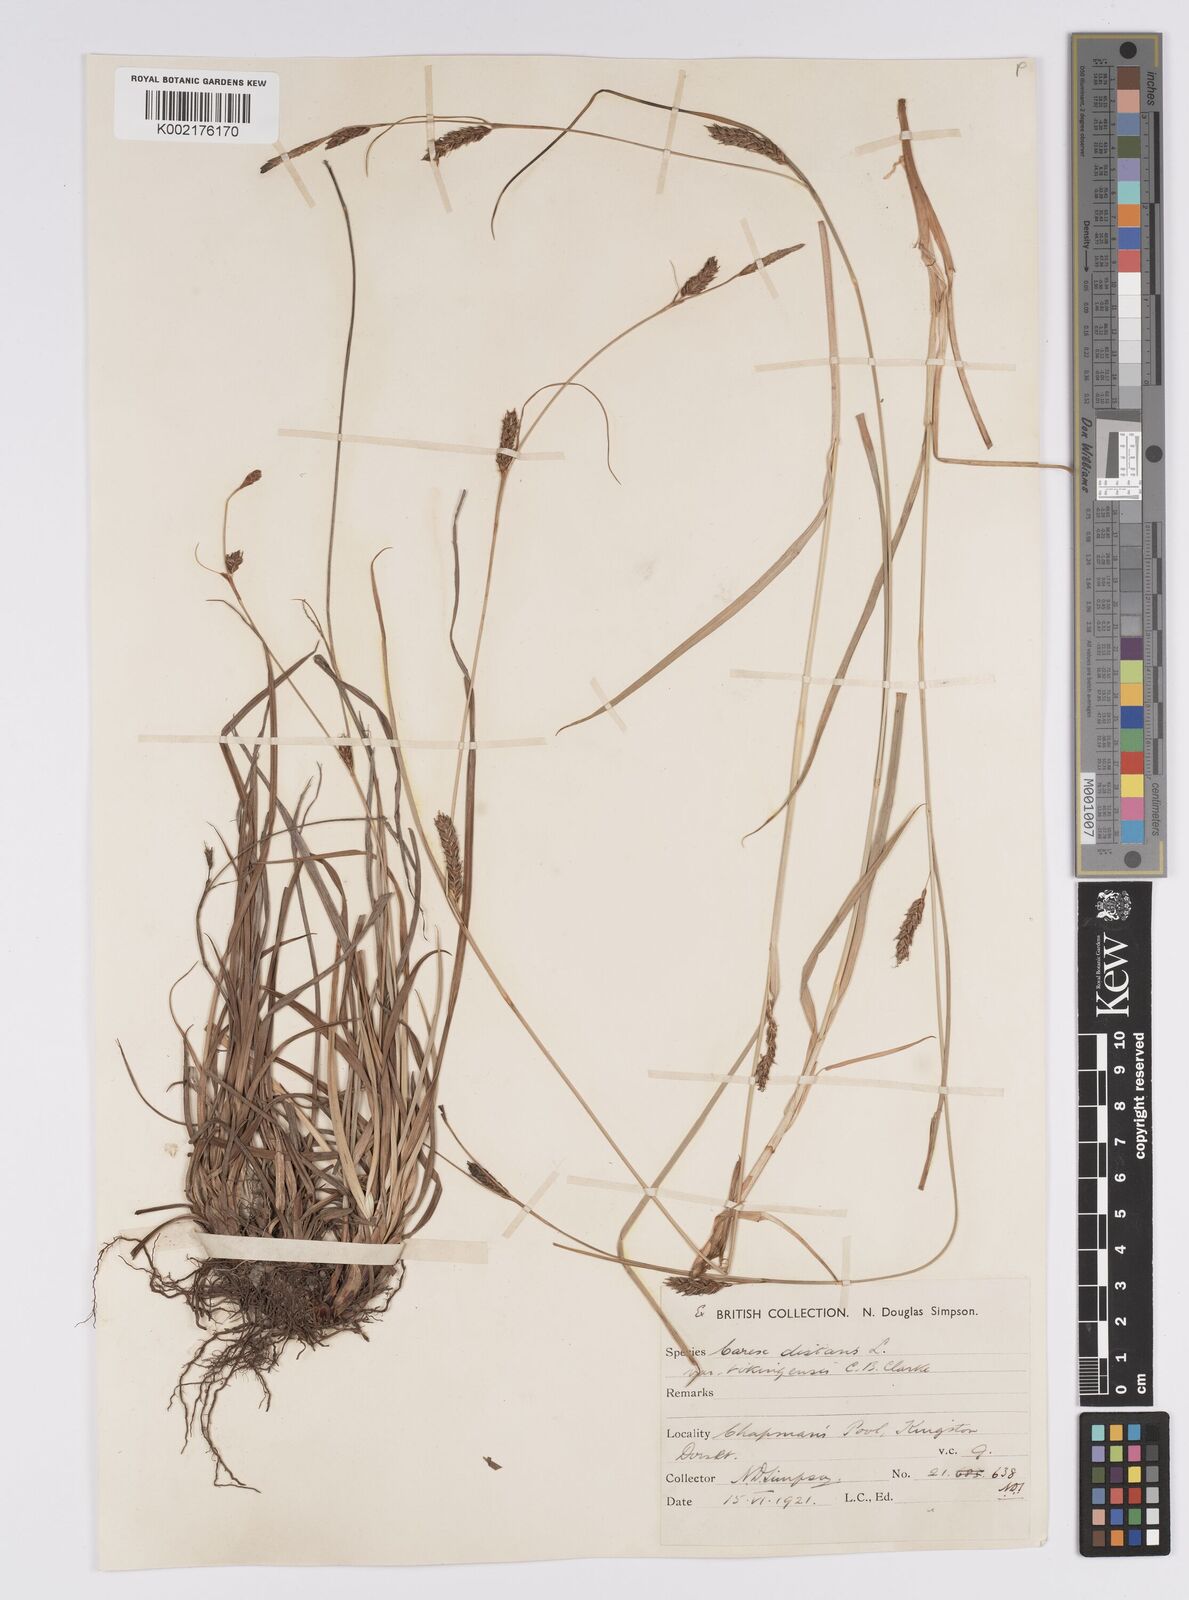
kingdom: Plantae
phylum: Tracheophyta
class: Liliopsida
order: Poales
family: Cyperaceae
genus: Carex
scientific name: Carex distans
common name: Distant sedge
